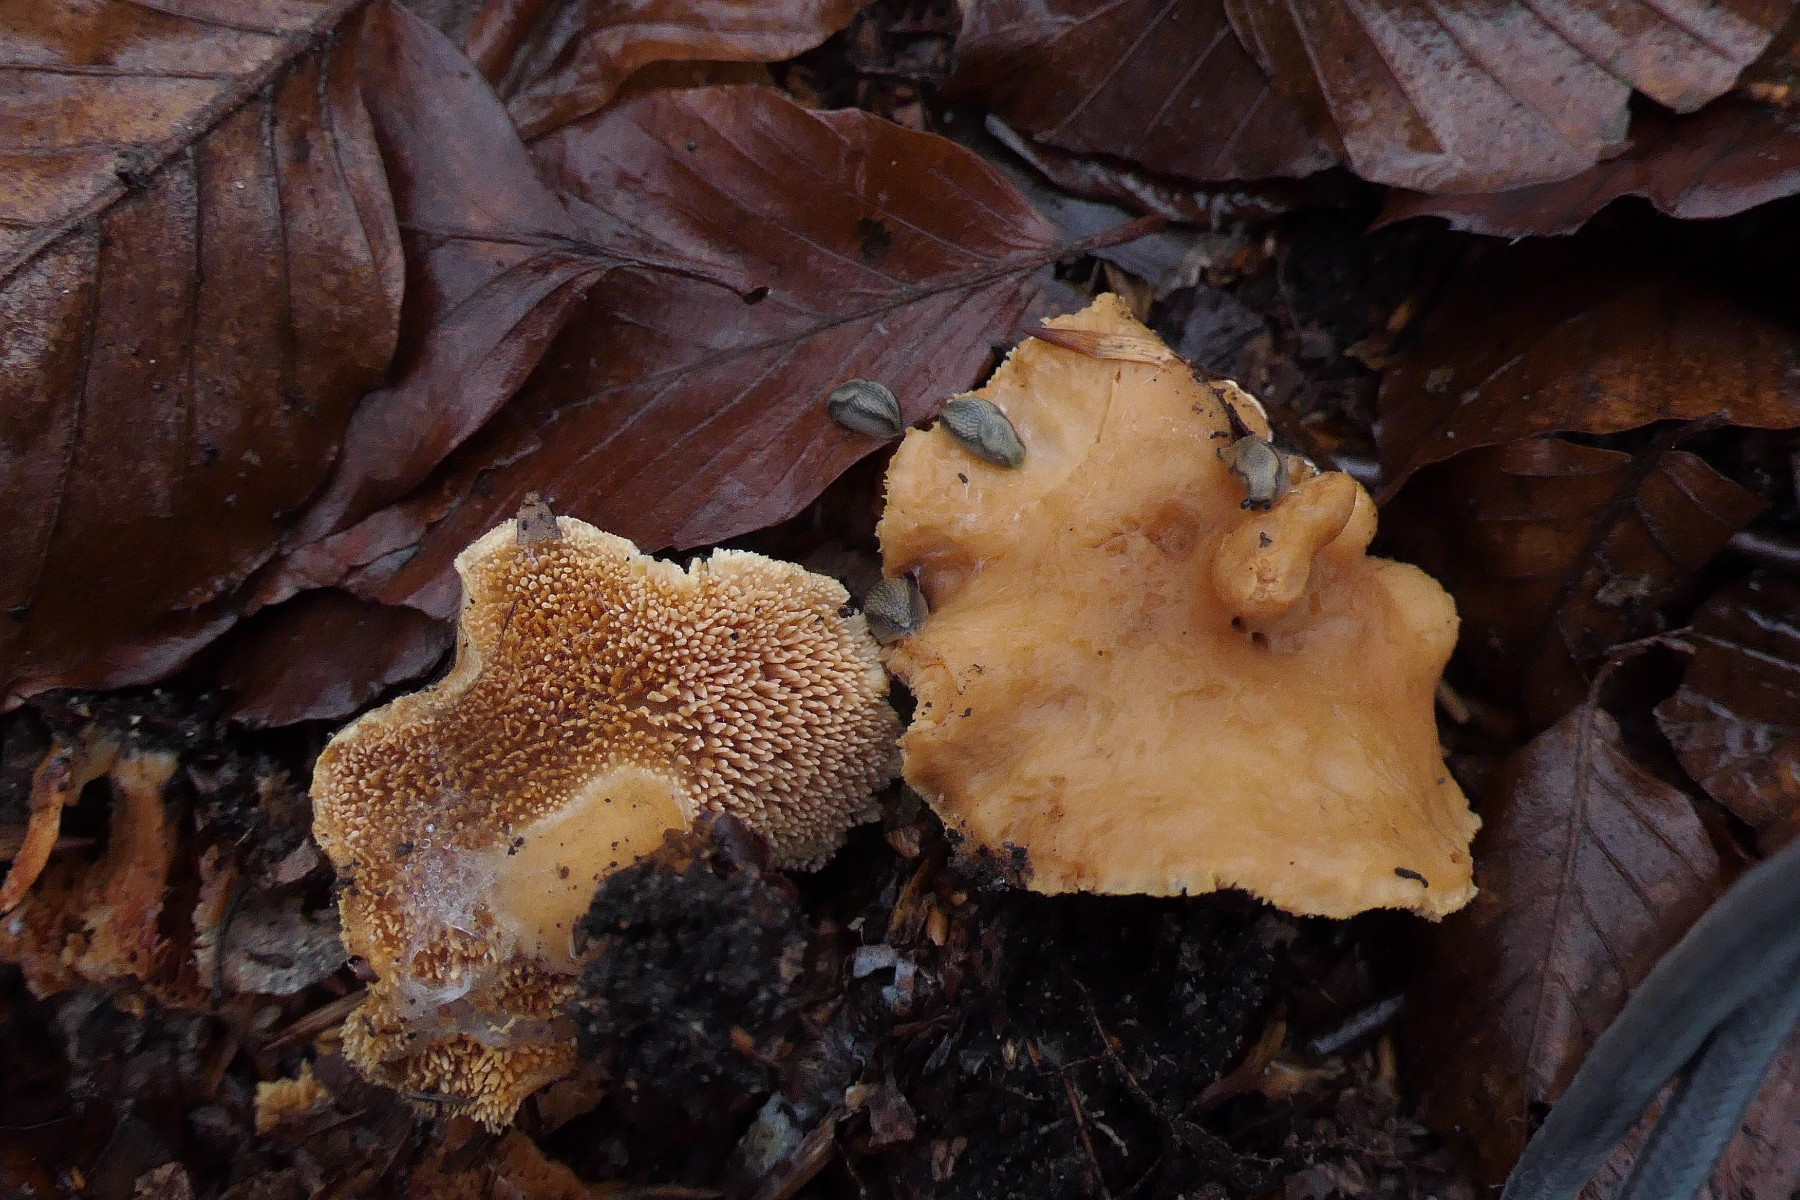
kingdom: Fungi
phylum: Basidiomycota
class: Agaricomycetes
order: Cantharellales
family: Hydnaceae
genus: Hydnum
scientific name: Hydnum ellipsosporum
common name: tandet pigsvamp
